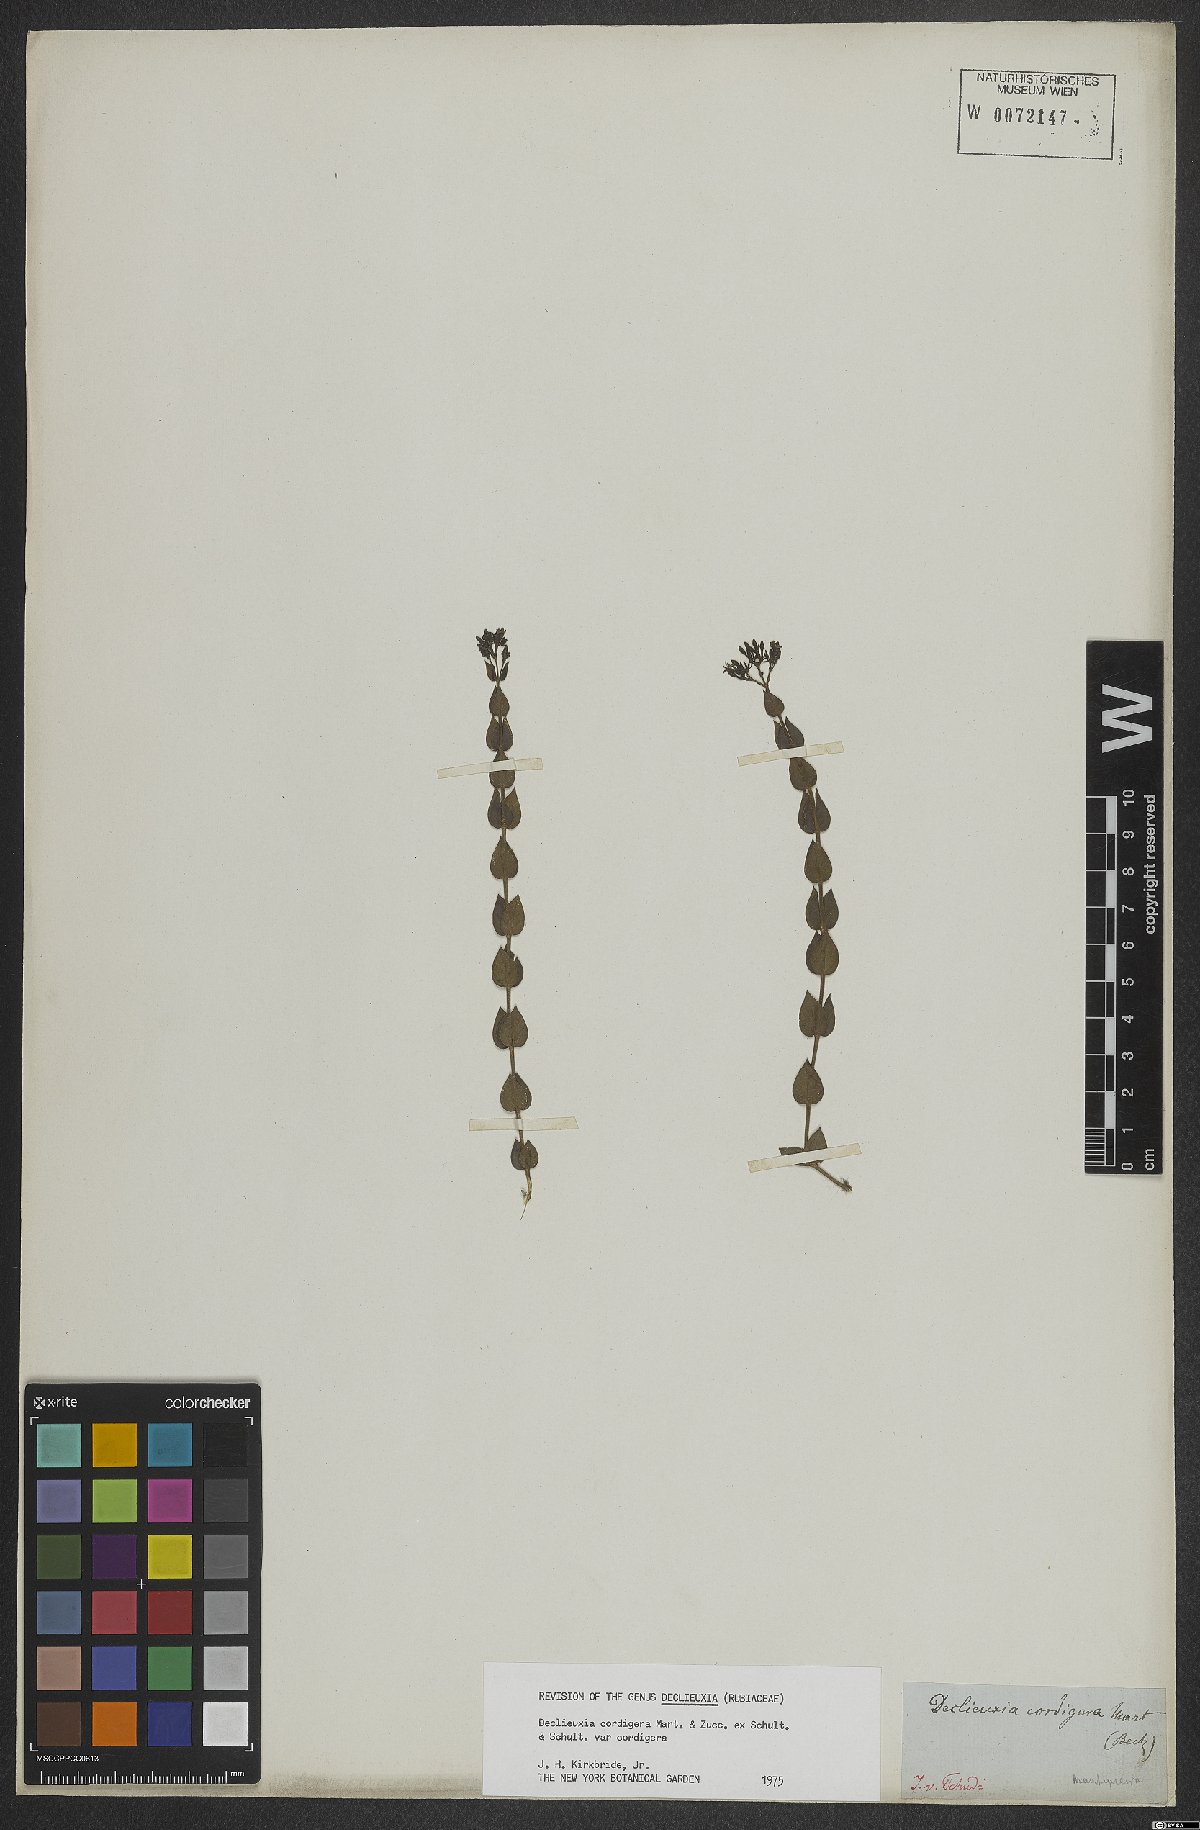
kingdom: Plantae
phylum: Tracheophyta
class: Magnoliopsida
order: Gentianales
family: Rubiaceae
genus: Declieuxia
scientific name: Declieuxia cordigera
